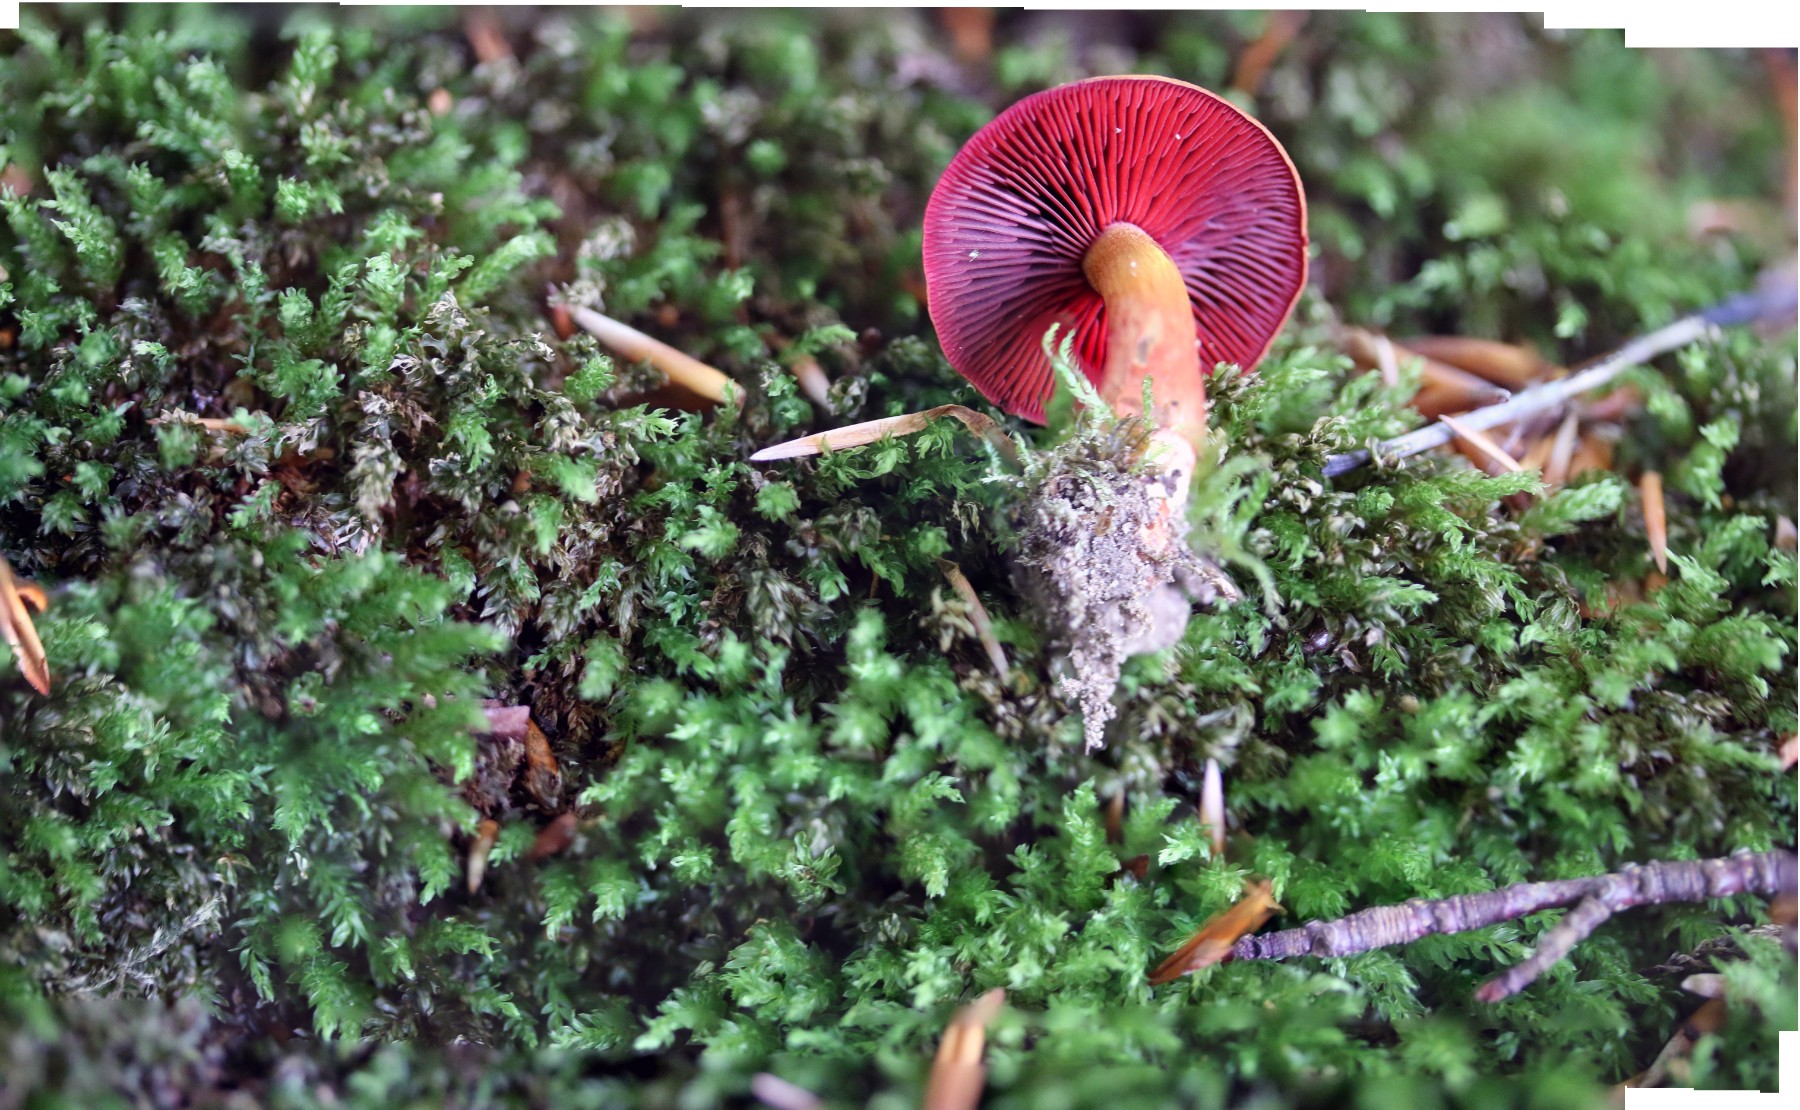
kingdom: Fungi
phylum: Basidiomycota
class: Agaricomycetes
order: Agaricales
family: Cortinariaceae
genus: Cortinarius
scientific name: Cortinarius sanguineus
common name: Bloodred webcap
